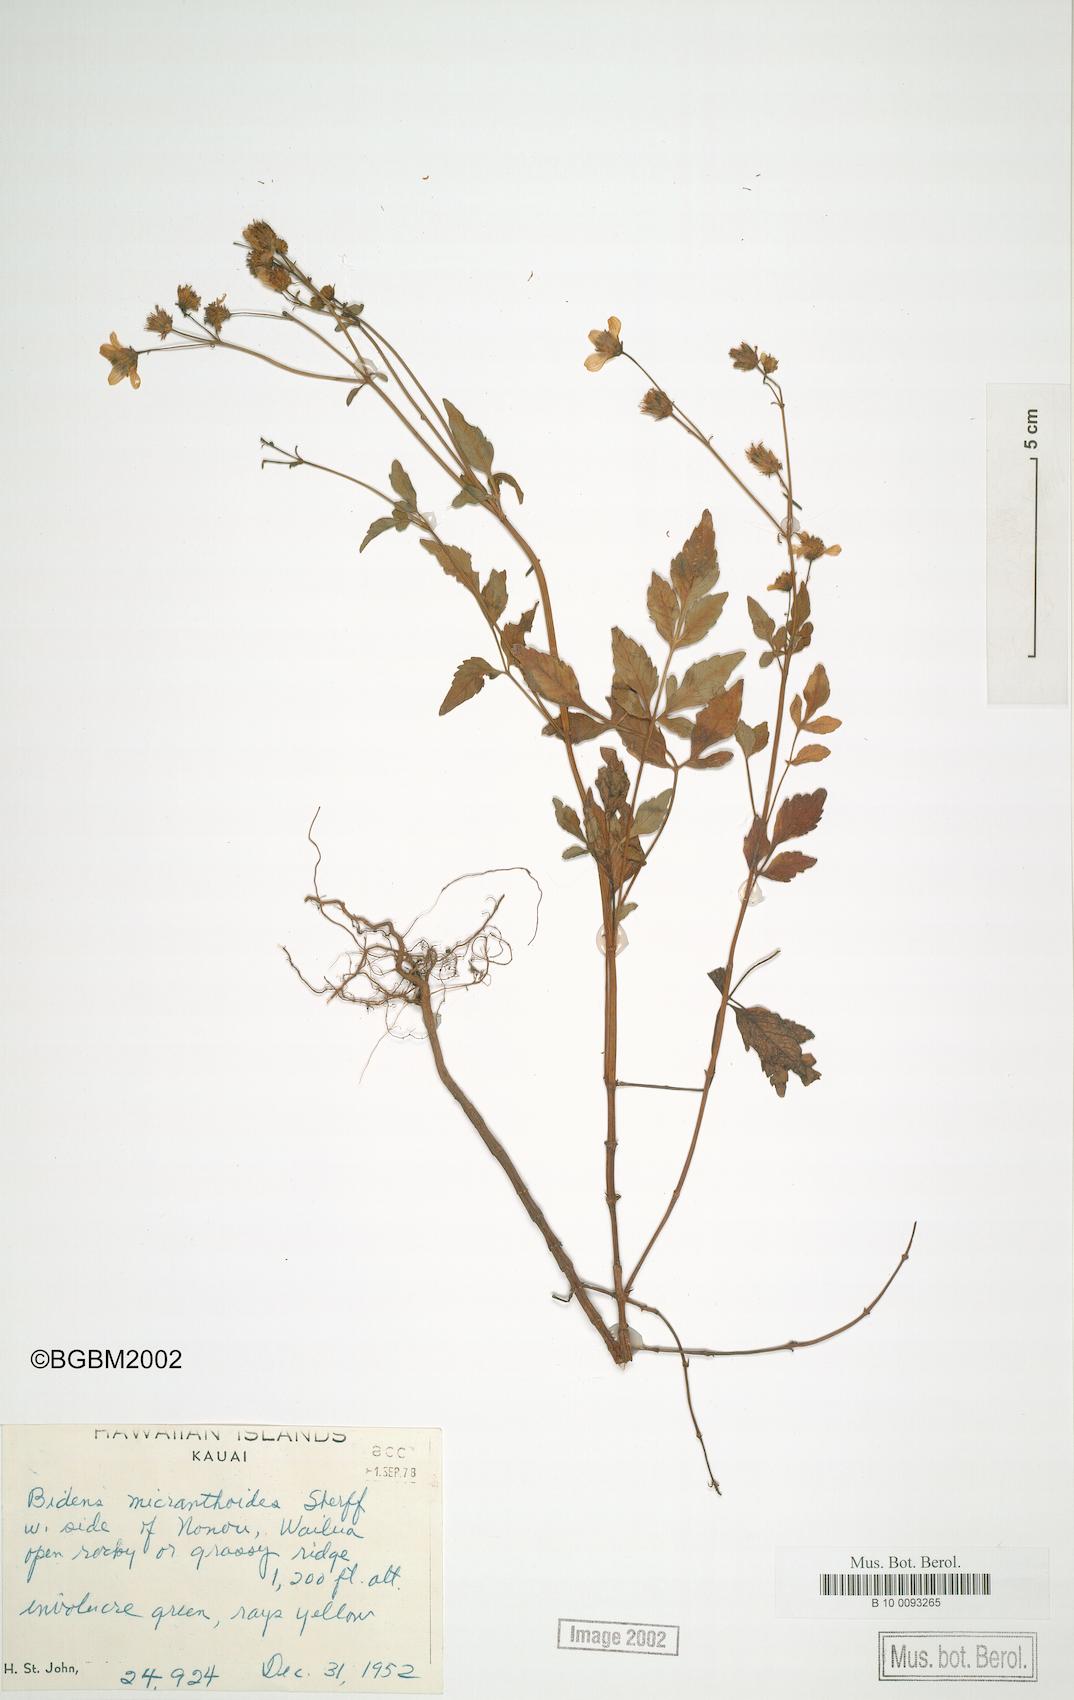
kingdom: Plantae
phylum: Tracheophyta
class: Magnoliopsida
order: Asterales
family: Asteraceae
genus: Bidens
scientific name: Bidens sandvicensis
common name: Shrubland beggarticks
